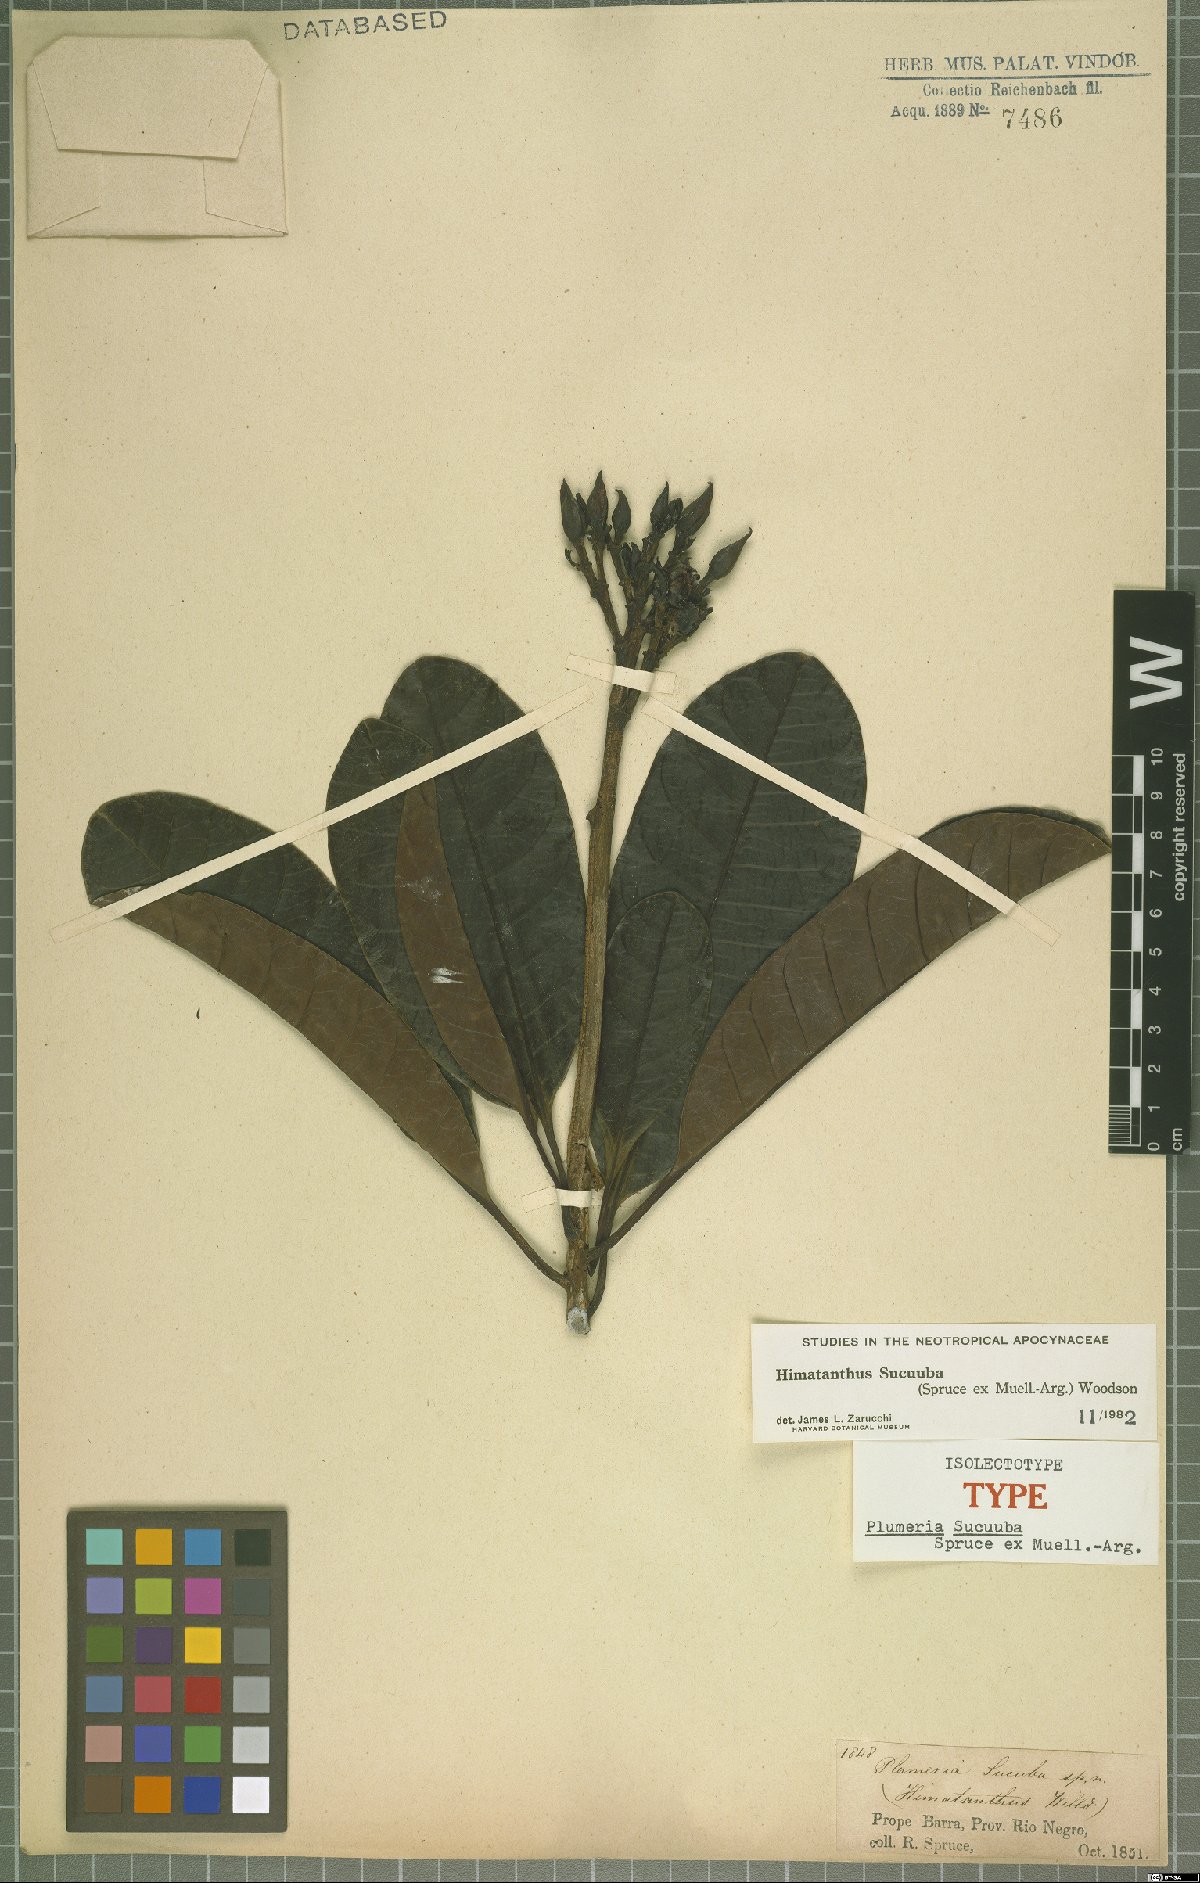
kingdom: Plantae
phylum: Tracheophyta
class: Magnoliopsida
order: Gentianales
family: Apocynaceae
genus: Himatanthus
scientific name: Himatanthus articulatus
